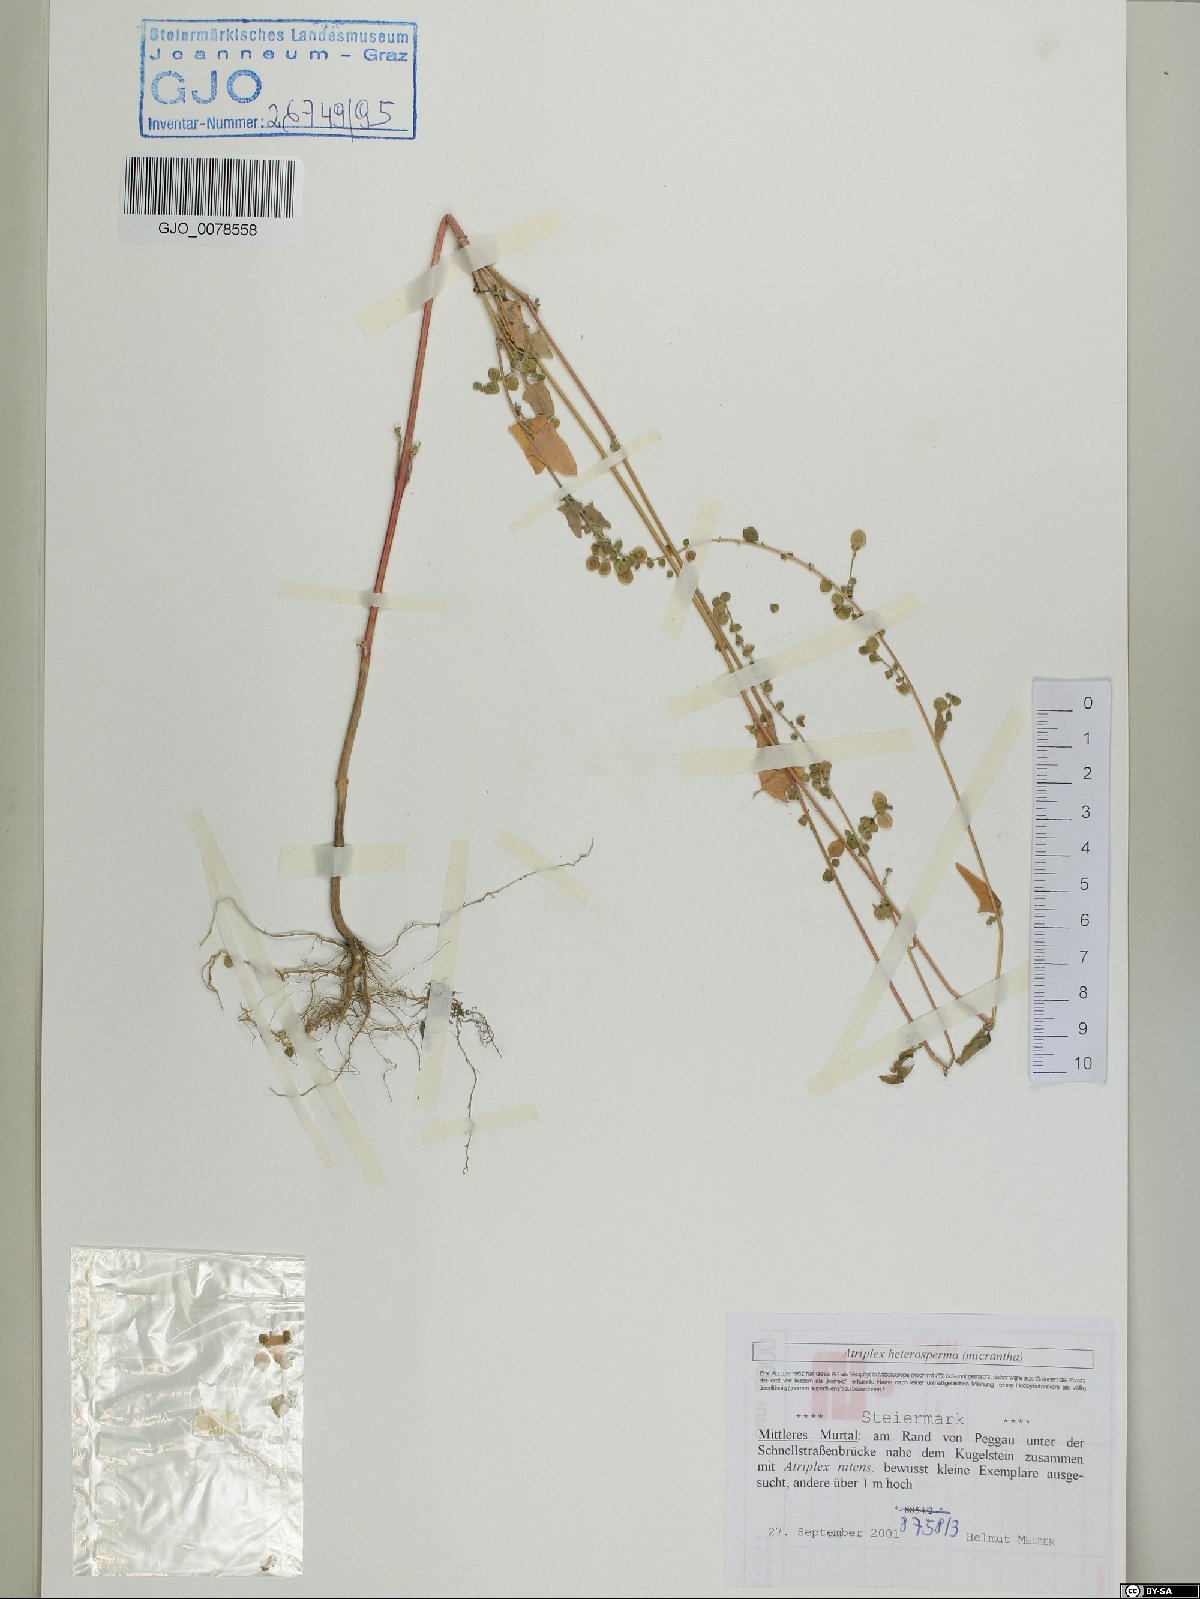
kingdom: Plantae
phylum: Tracheophyta
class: Magnoliopsida
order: Caryophyllales
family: Amaranthaceae
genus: Atriplex
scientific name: Atriplex micrantha
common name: Twoscale saltbush
